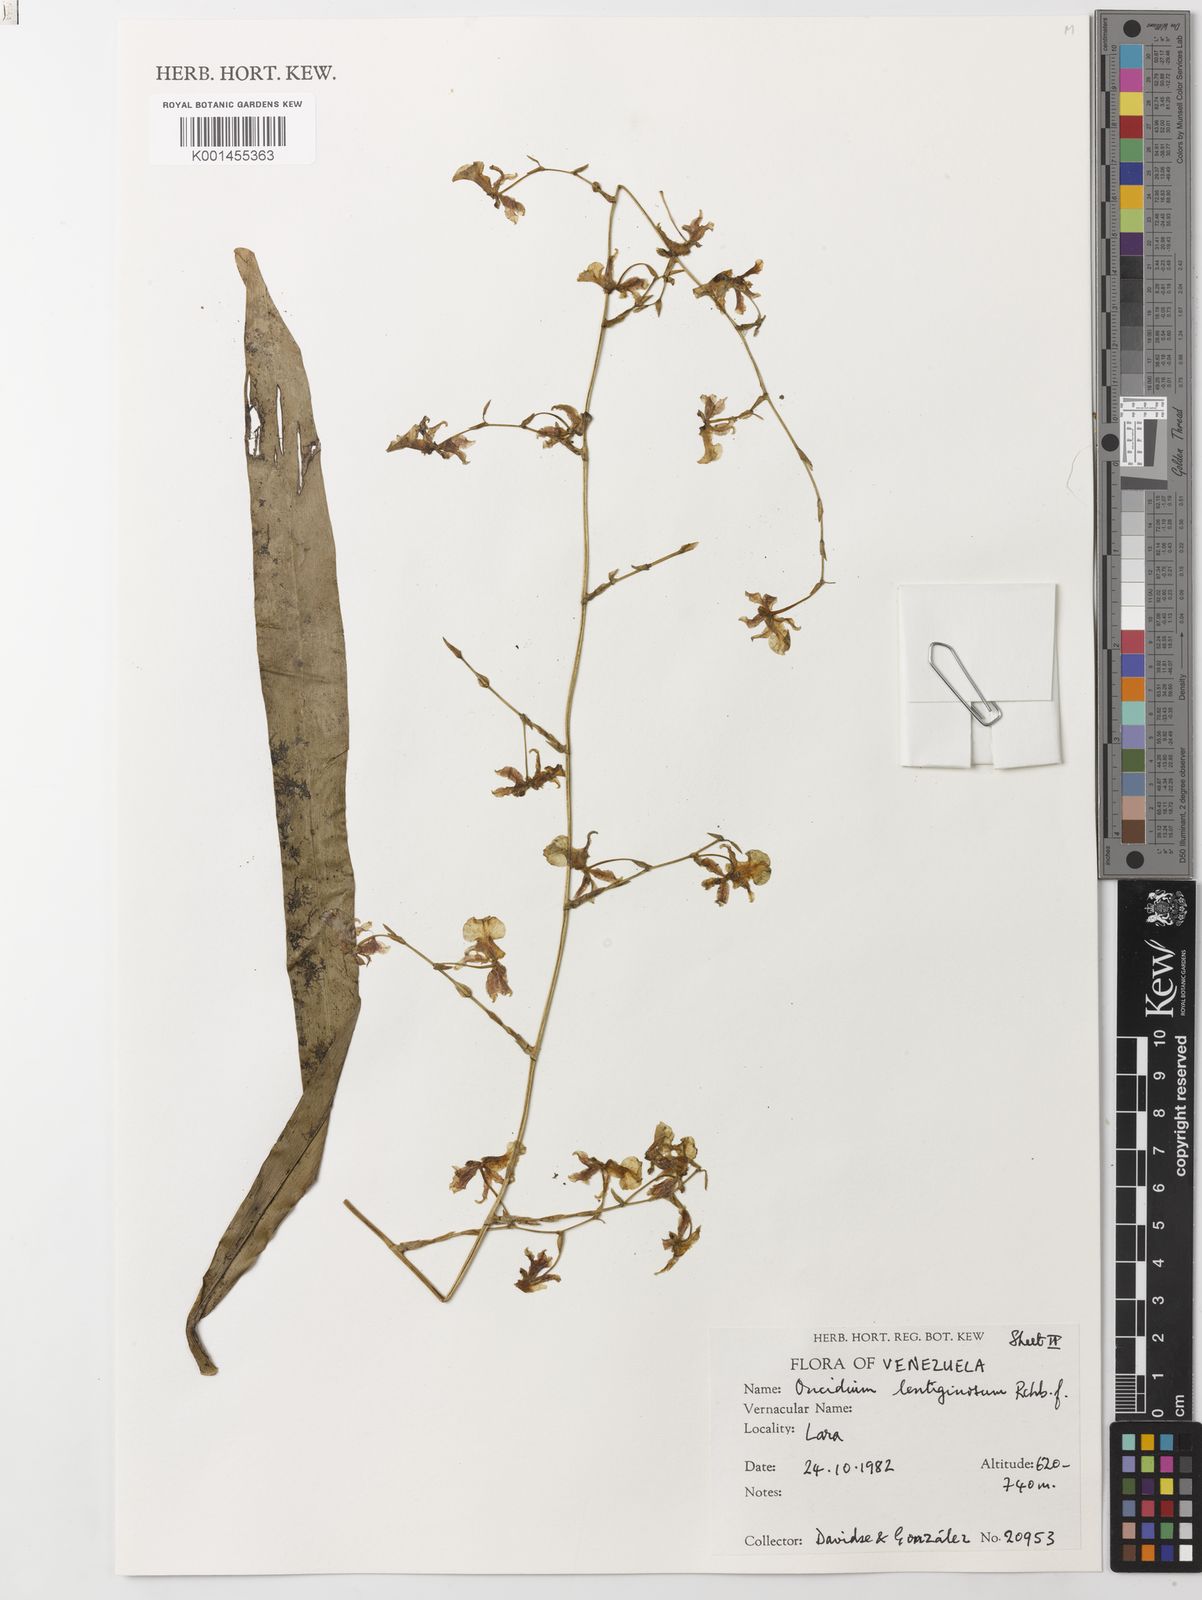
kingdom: Plantae
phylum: Tracheophyta
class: Liliopsida
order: Asparagales
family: Orchidaceae
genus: Oncidium
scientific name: Oncidium lentiginosum
